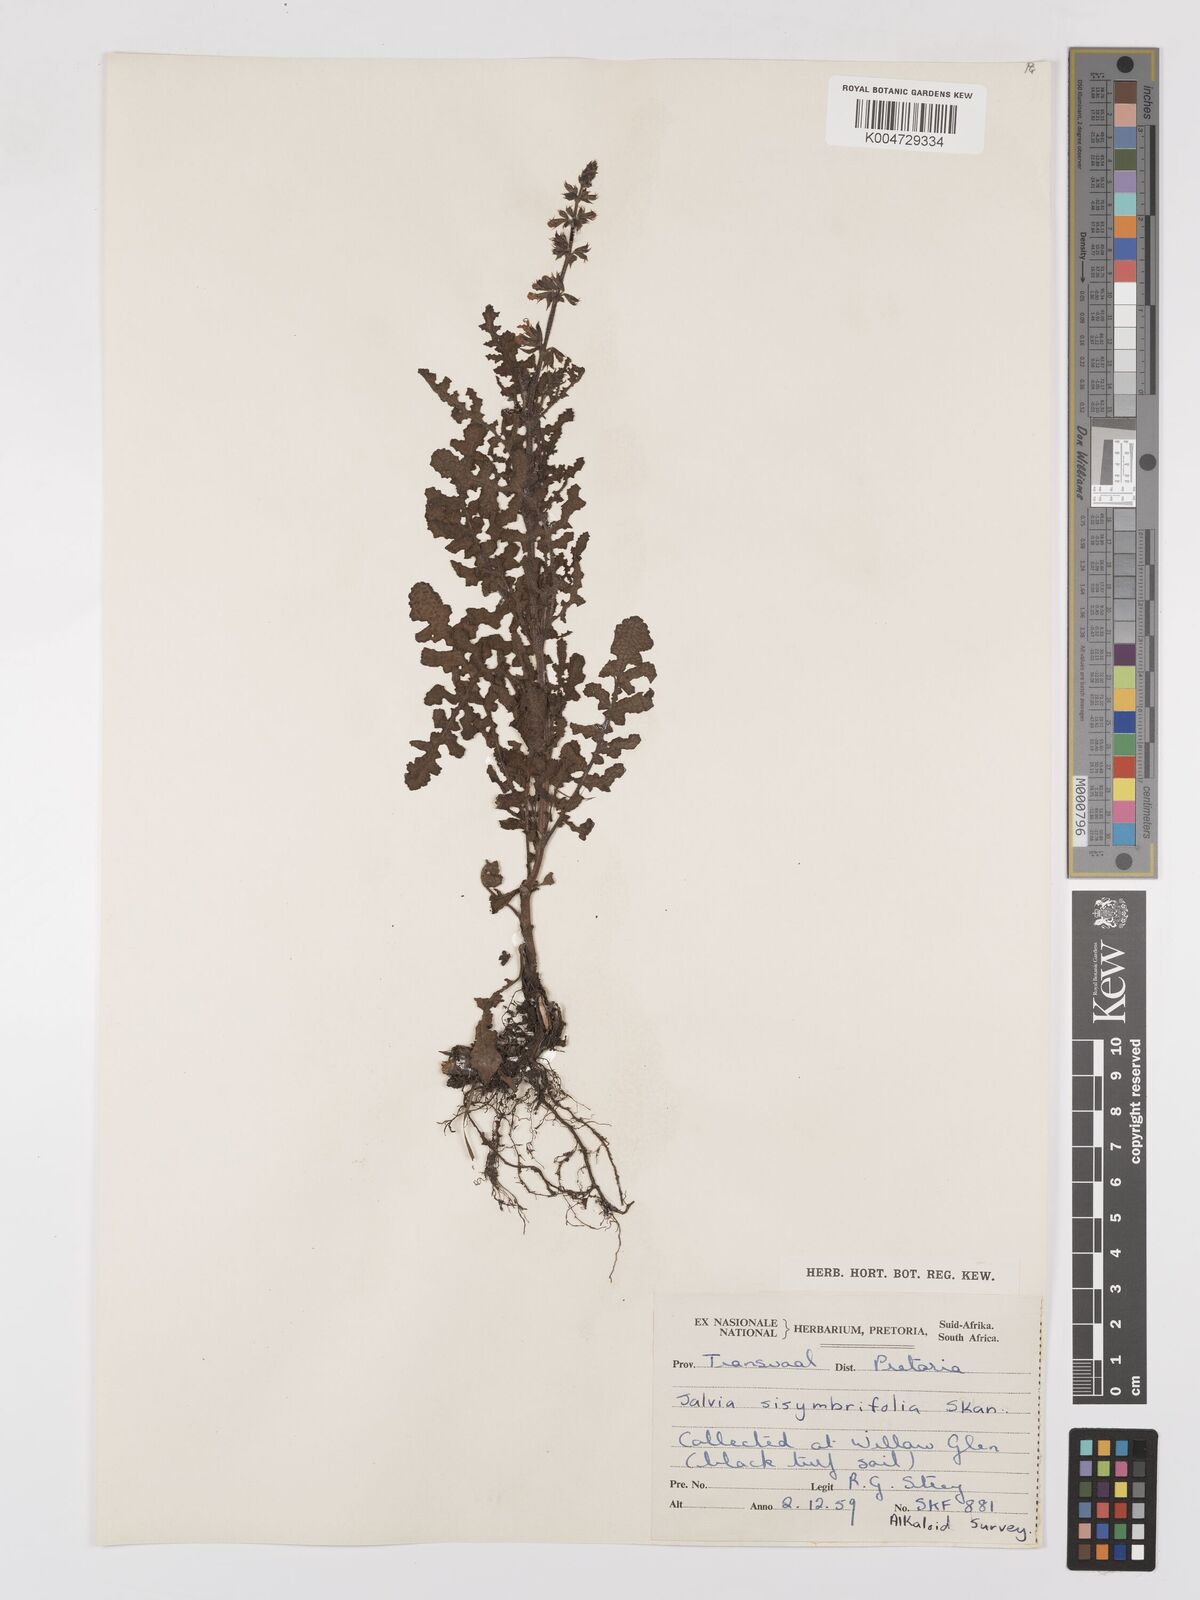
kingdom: Plantae
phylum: Tracheophyta
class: Magnoliopsida
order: Lamiales
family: Lamiaceae
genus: Salvia
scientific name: Salvia runcinata
